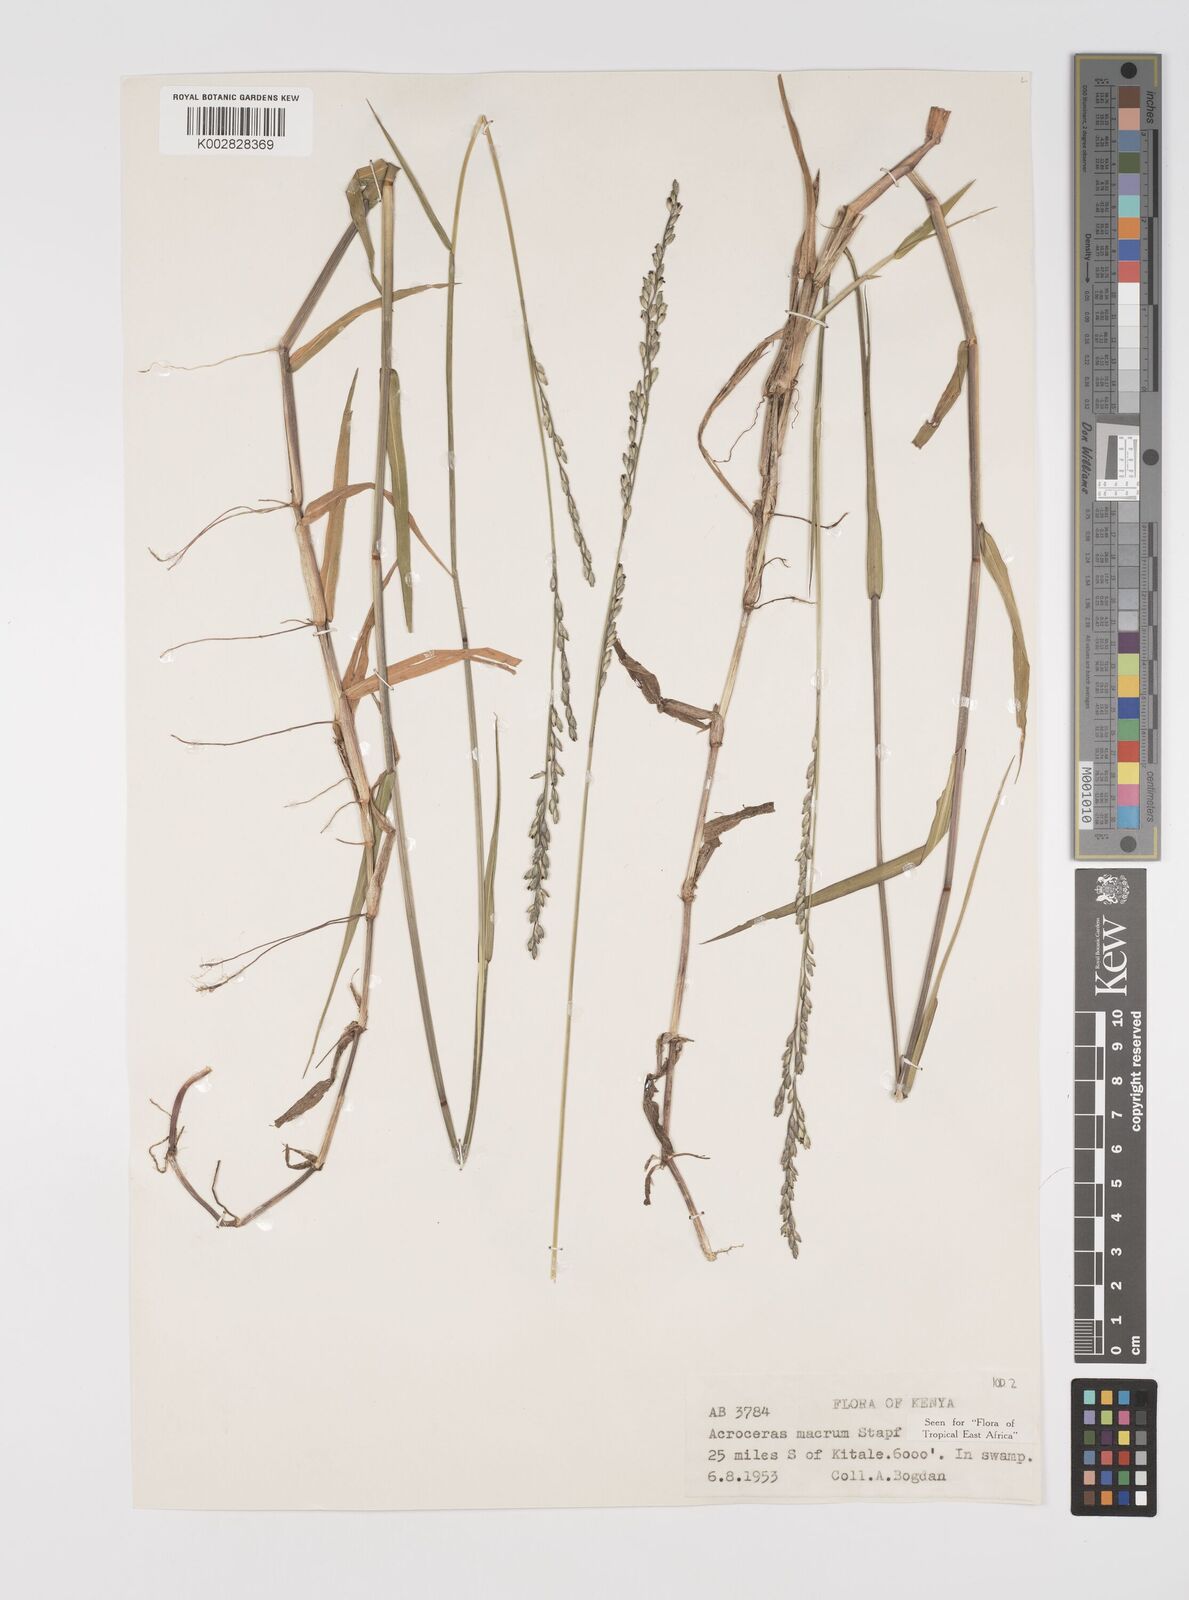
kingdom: Plantae
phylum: Tracheophyta
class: Liliopsida
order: Poales
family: Poaceae
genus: Acroceras
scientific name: Acroceras macrum
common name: Nyl grass
